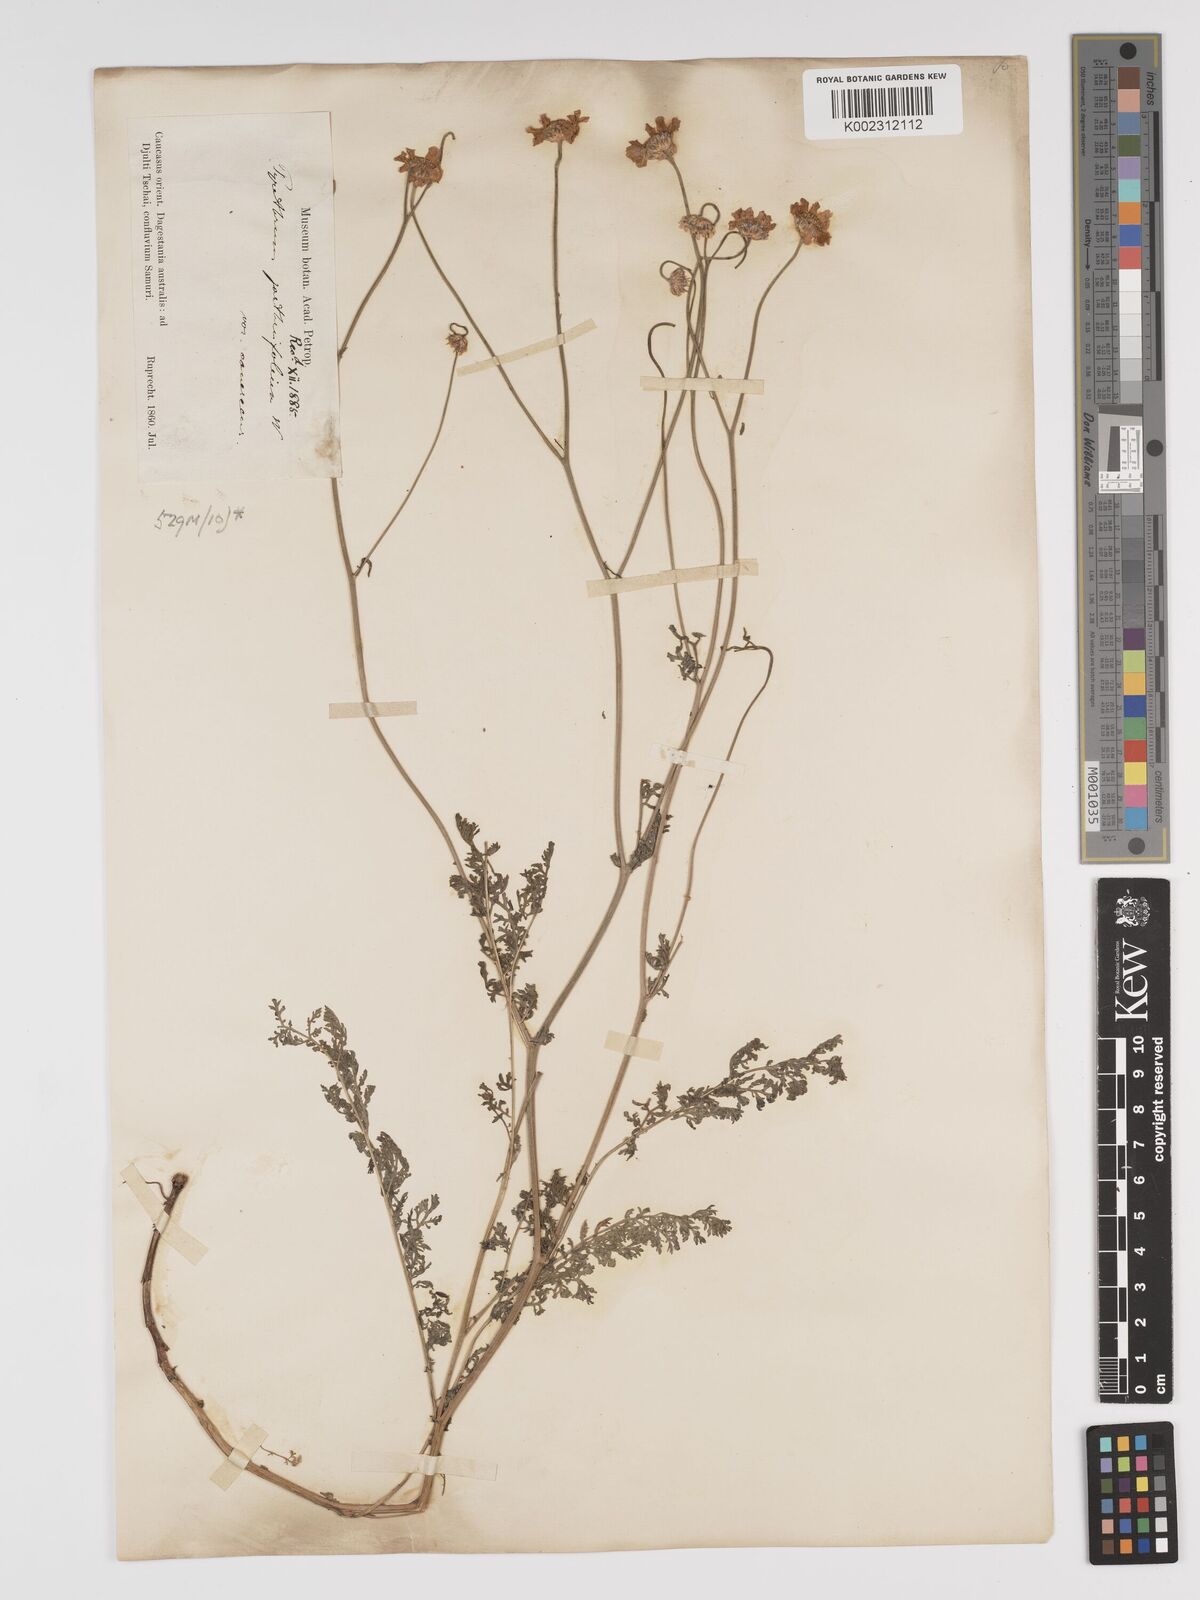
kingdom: Plantae
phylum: Tracheophyta
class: Magnoliopsida
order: Asterales
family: Asteraceae
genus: Tanacetum
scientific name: Tanacetum leptophyllum
